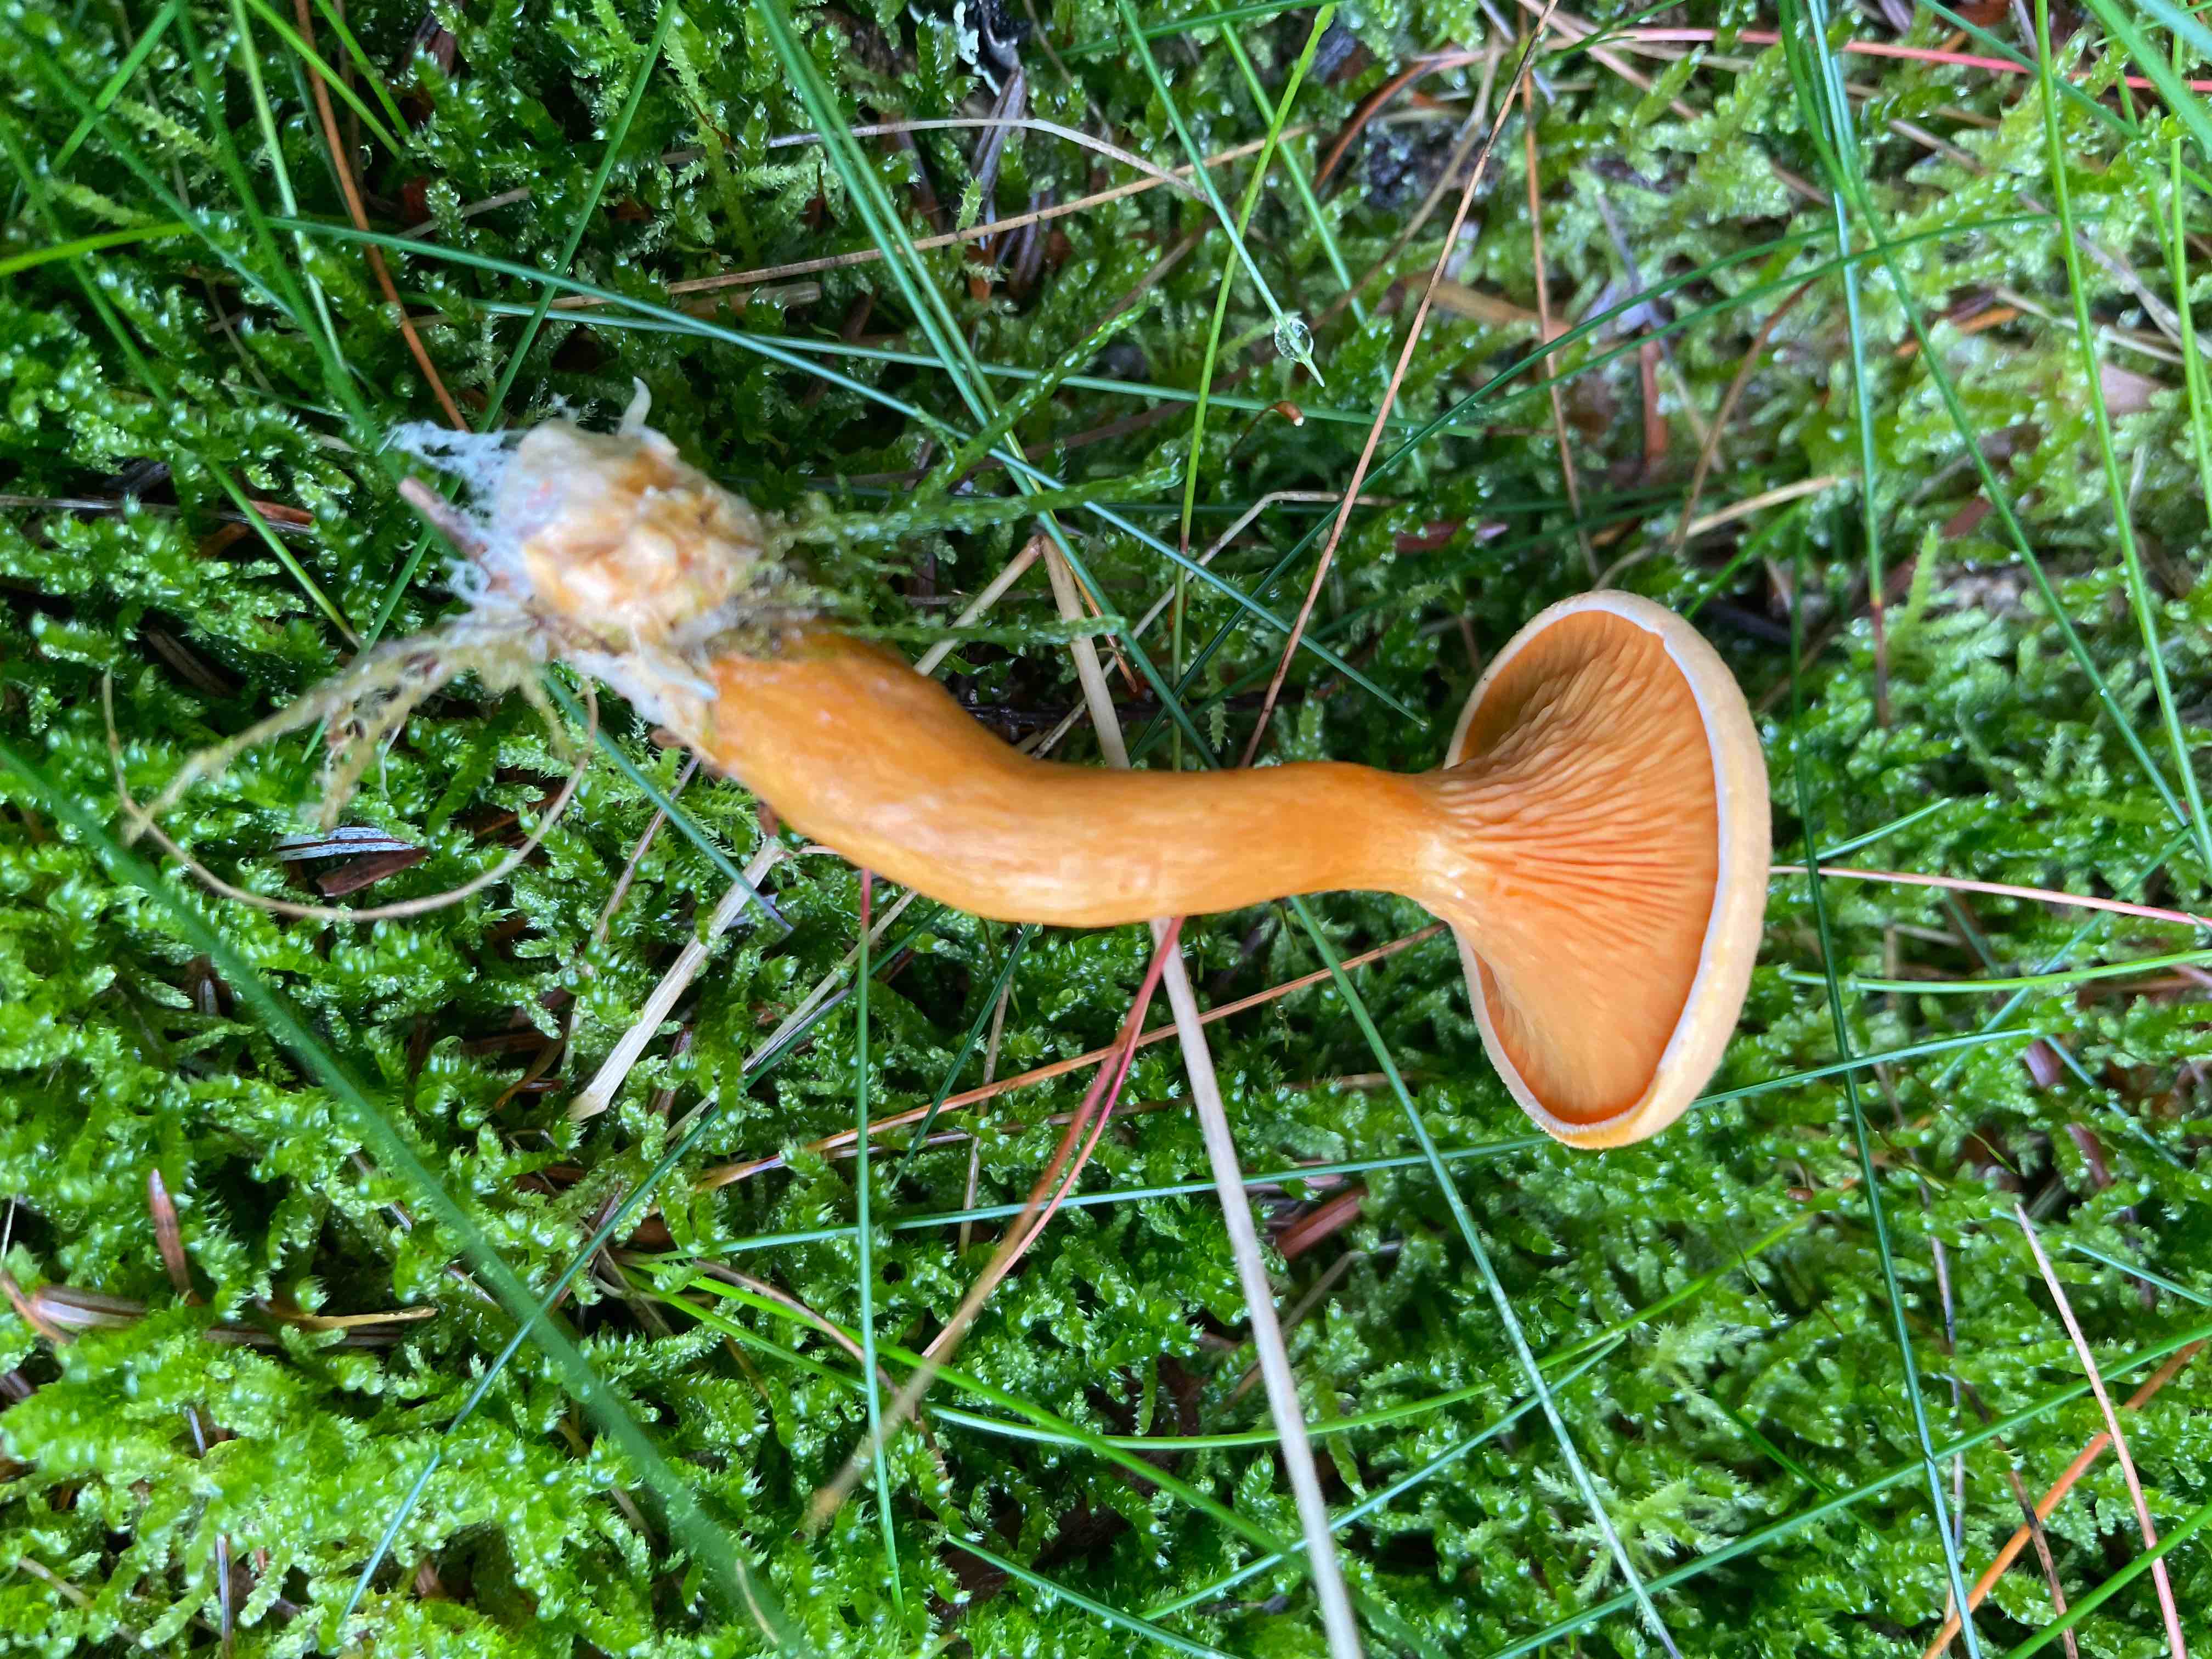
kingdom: Fungi
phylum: Basidiomycota
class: Agaricomycetes
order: Boletales
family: Hygrophoropsidaceae
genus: Hygrophoropsis
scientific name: Hygrophoropsis aurantiaca
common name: almindelig orangekantarel
